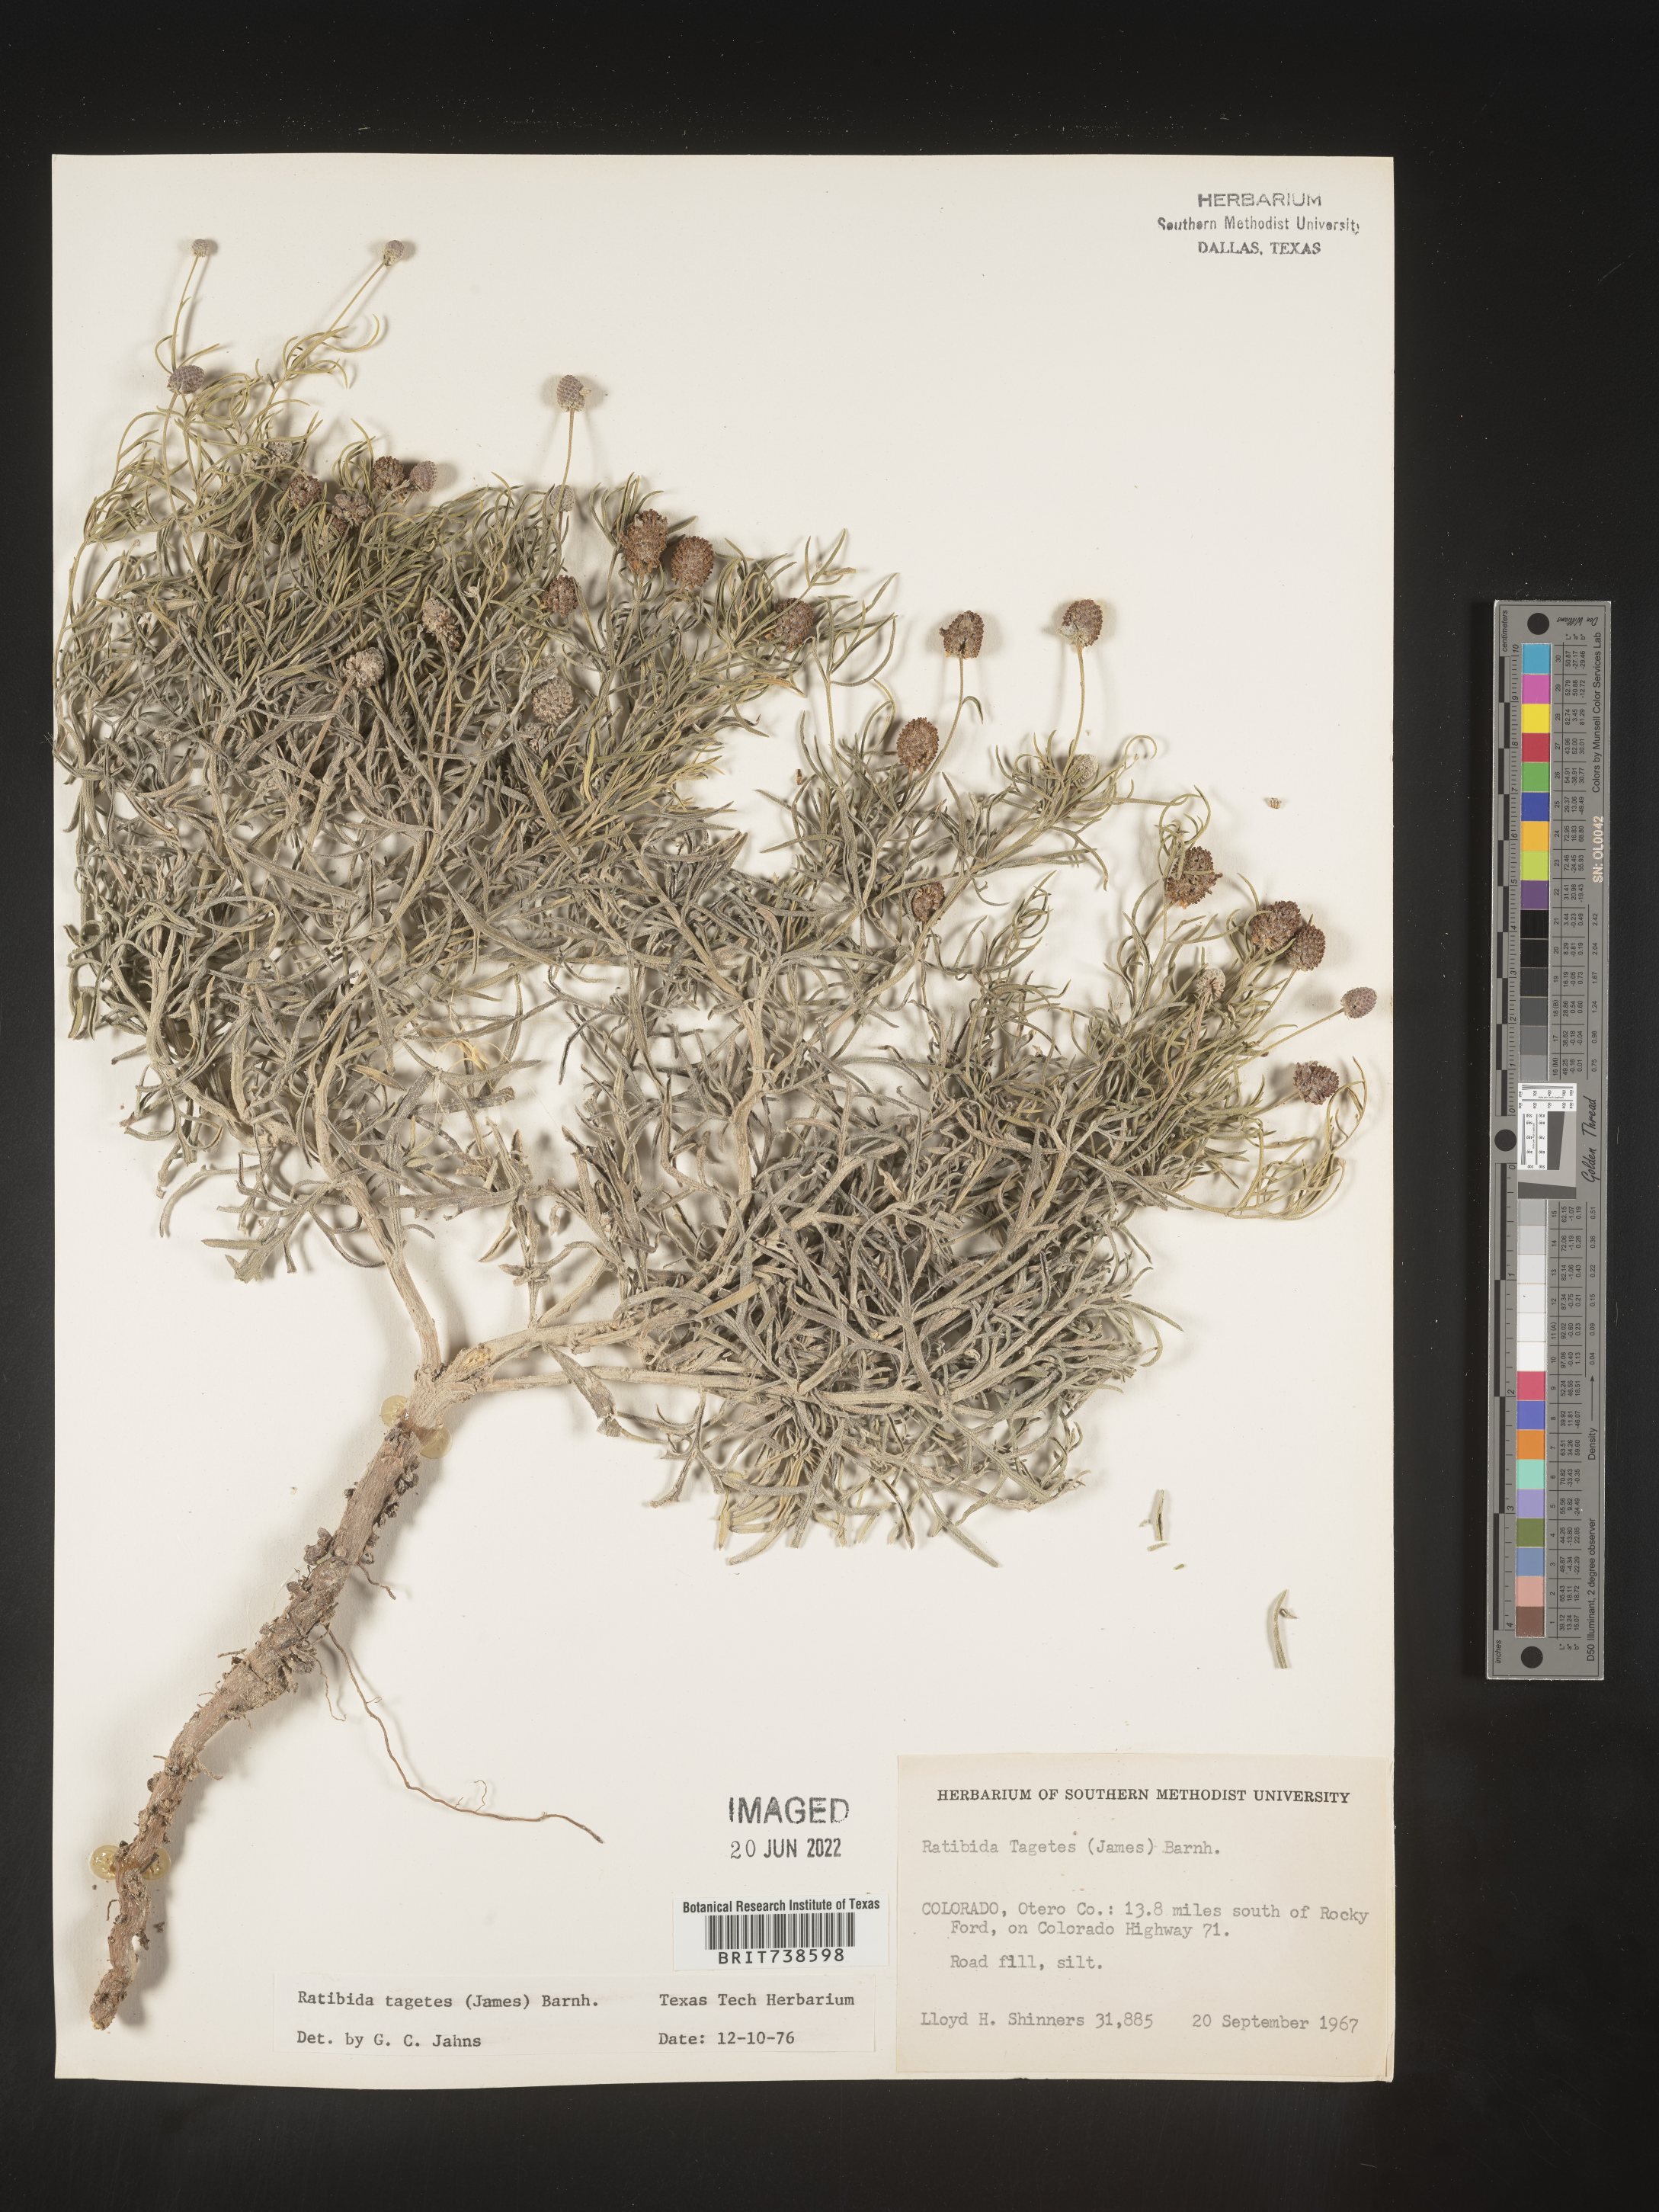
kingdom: Plantae
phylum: Tracheophyta
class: Magnoliopsida
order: Asterales
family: Asteraceae
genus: Ratibida
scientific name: Ratibida tagetes
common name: Green mexican-hat
